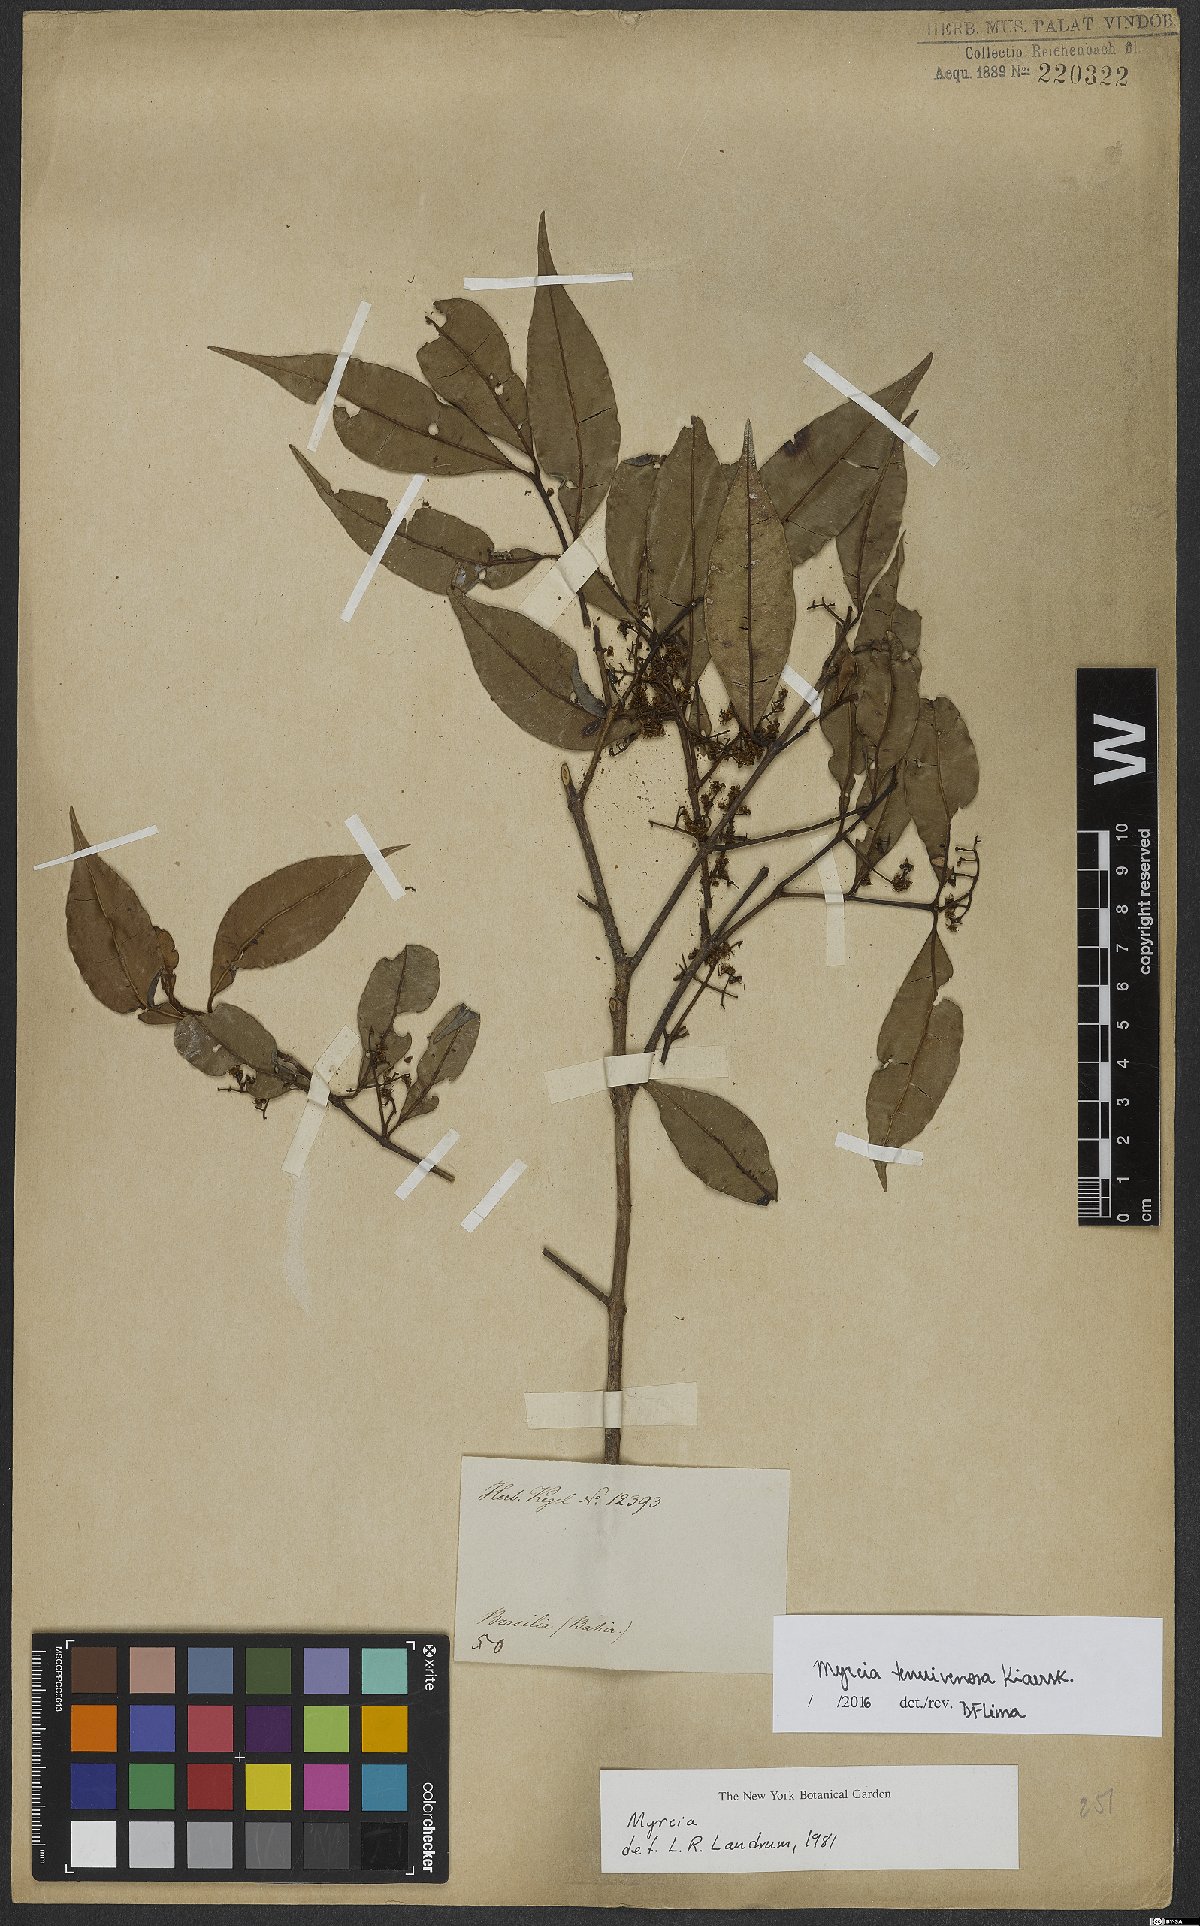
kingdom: Plantae
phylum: Tracheophyta
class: Magnoliopsida
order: Myrtales
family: Myrtaceae
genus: Myrcia
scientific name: Myrcia tenuivenosa
